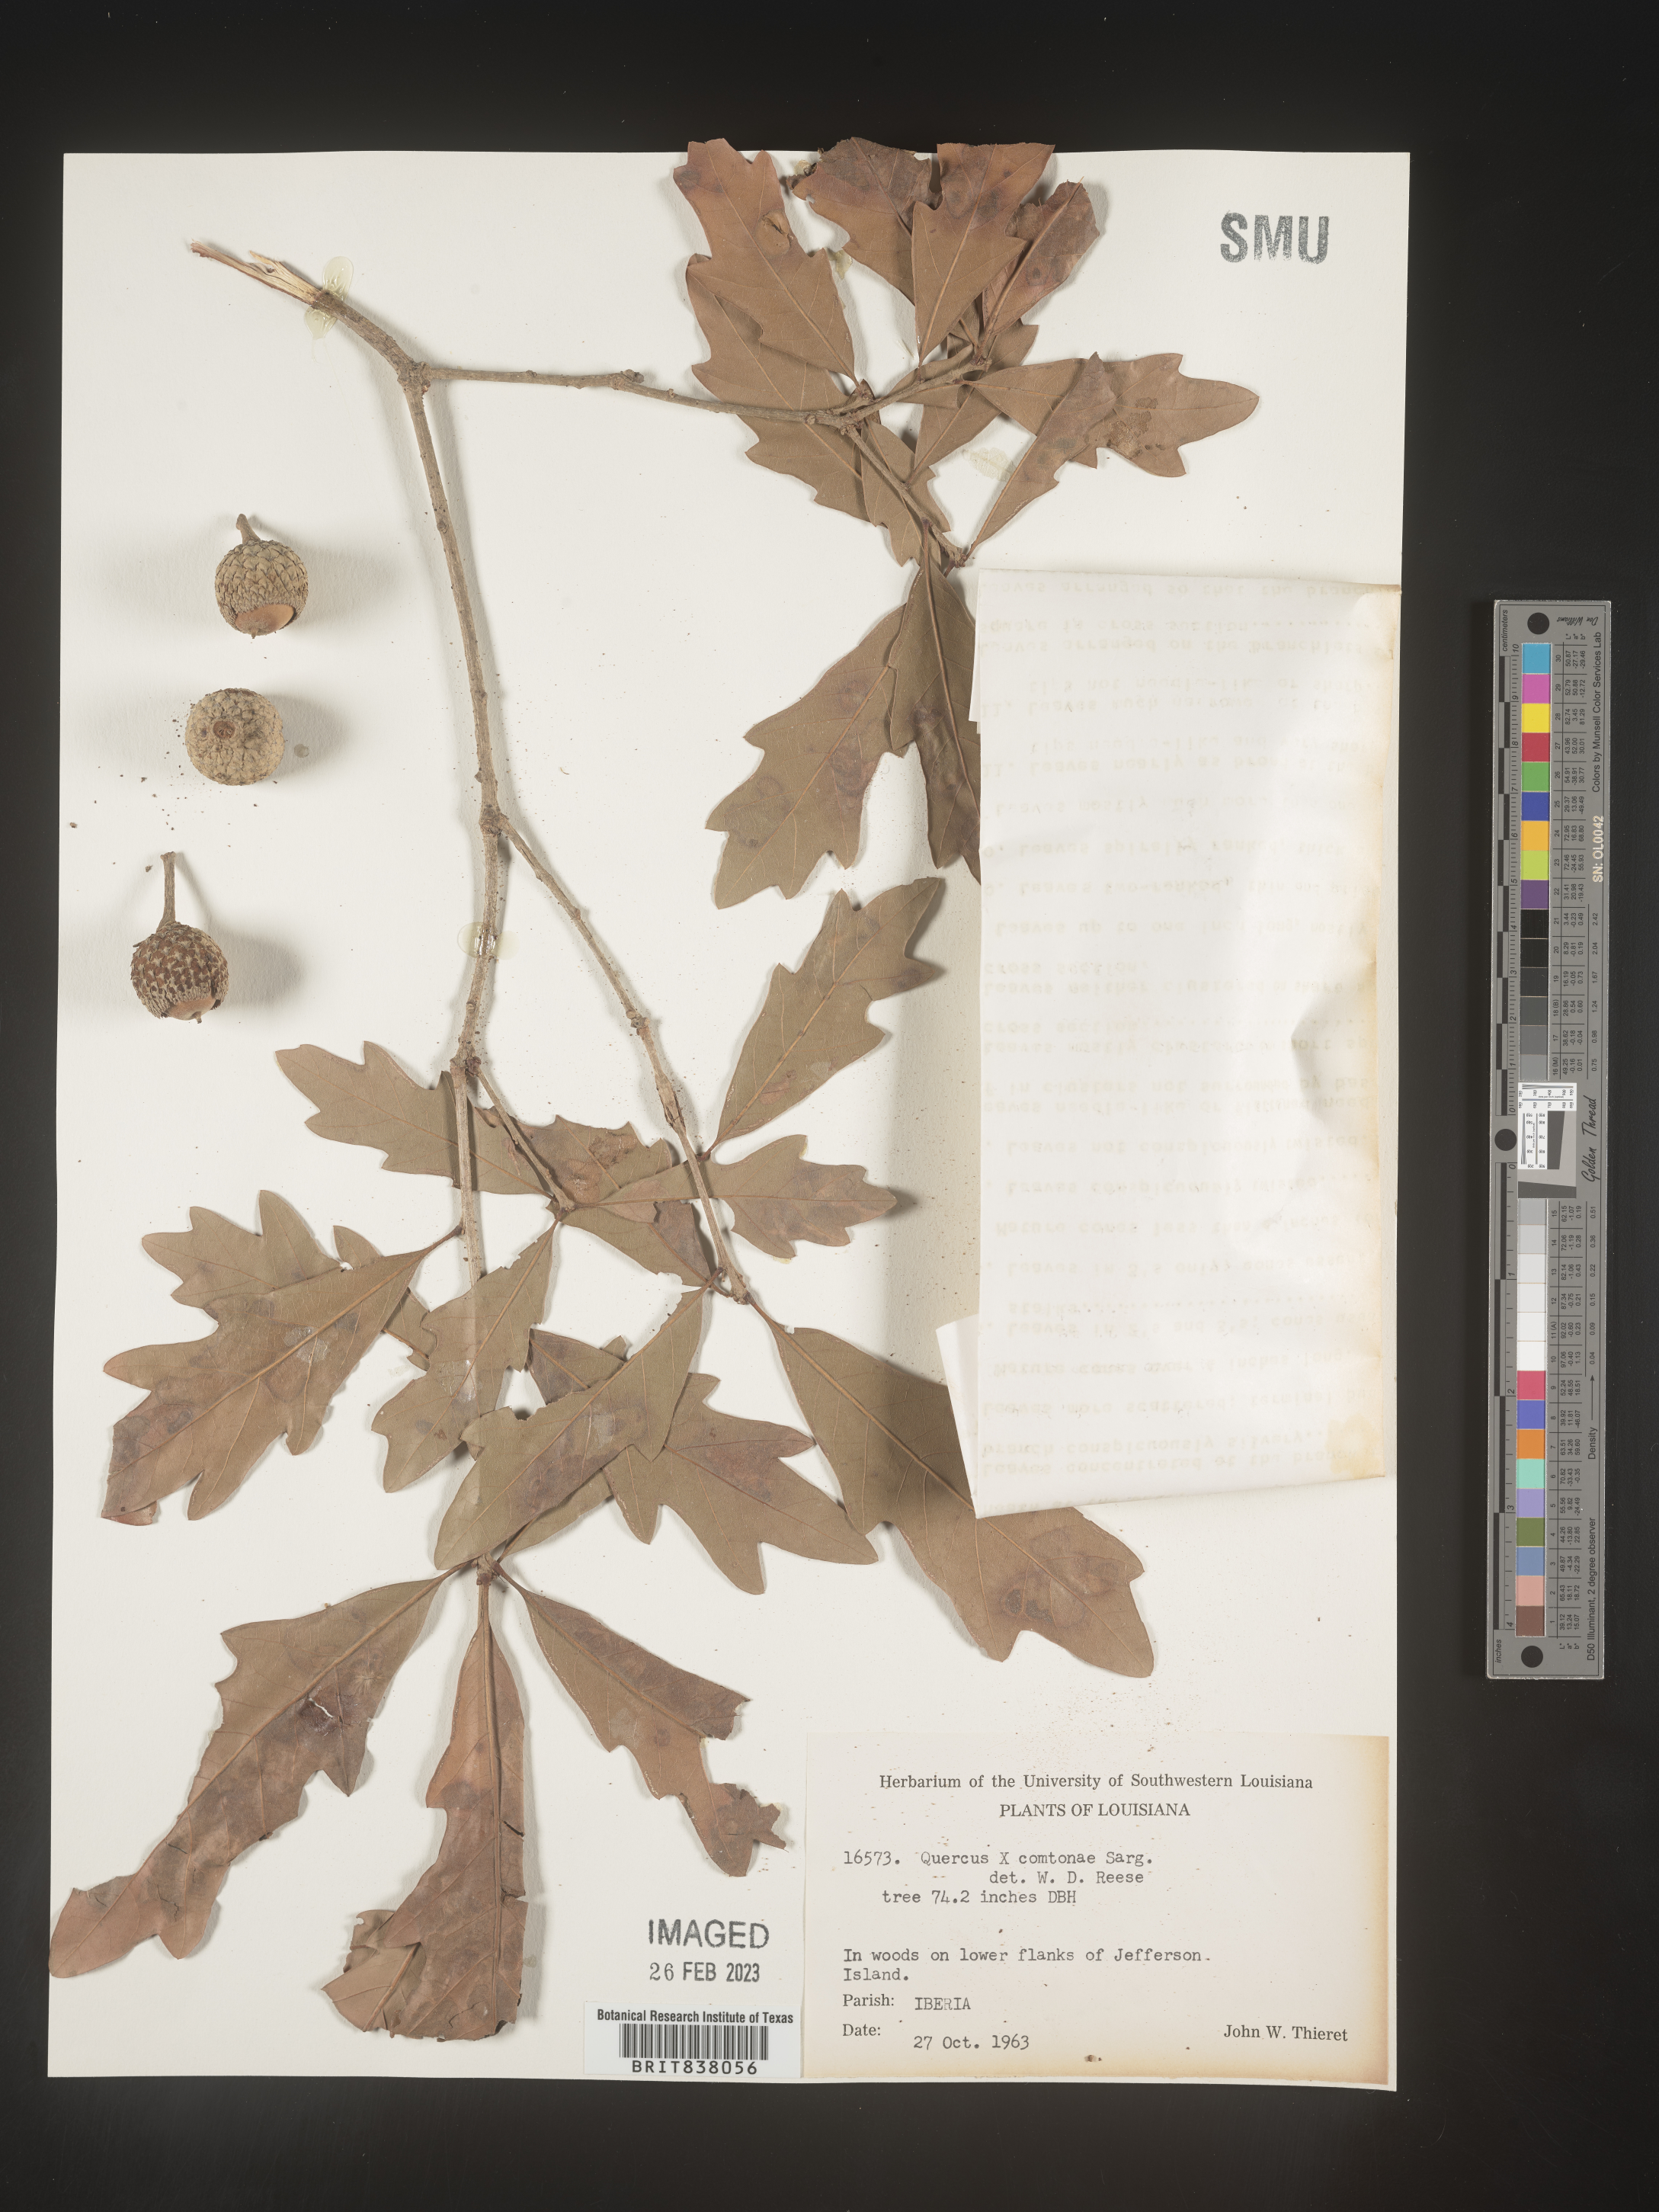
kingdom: Plantae
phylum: Tracheophyta
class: Magnoliopsida
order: Fagales
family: Fagaceae
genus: Quercus
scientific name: Quercus comptoniae
